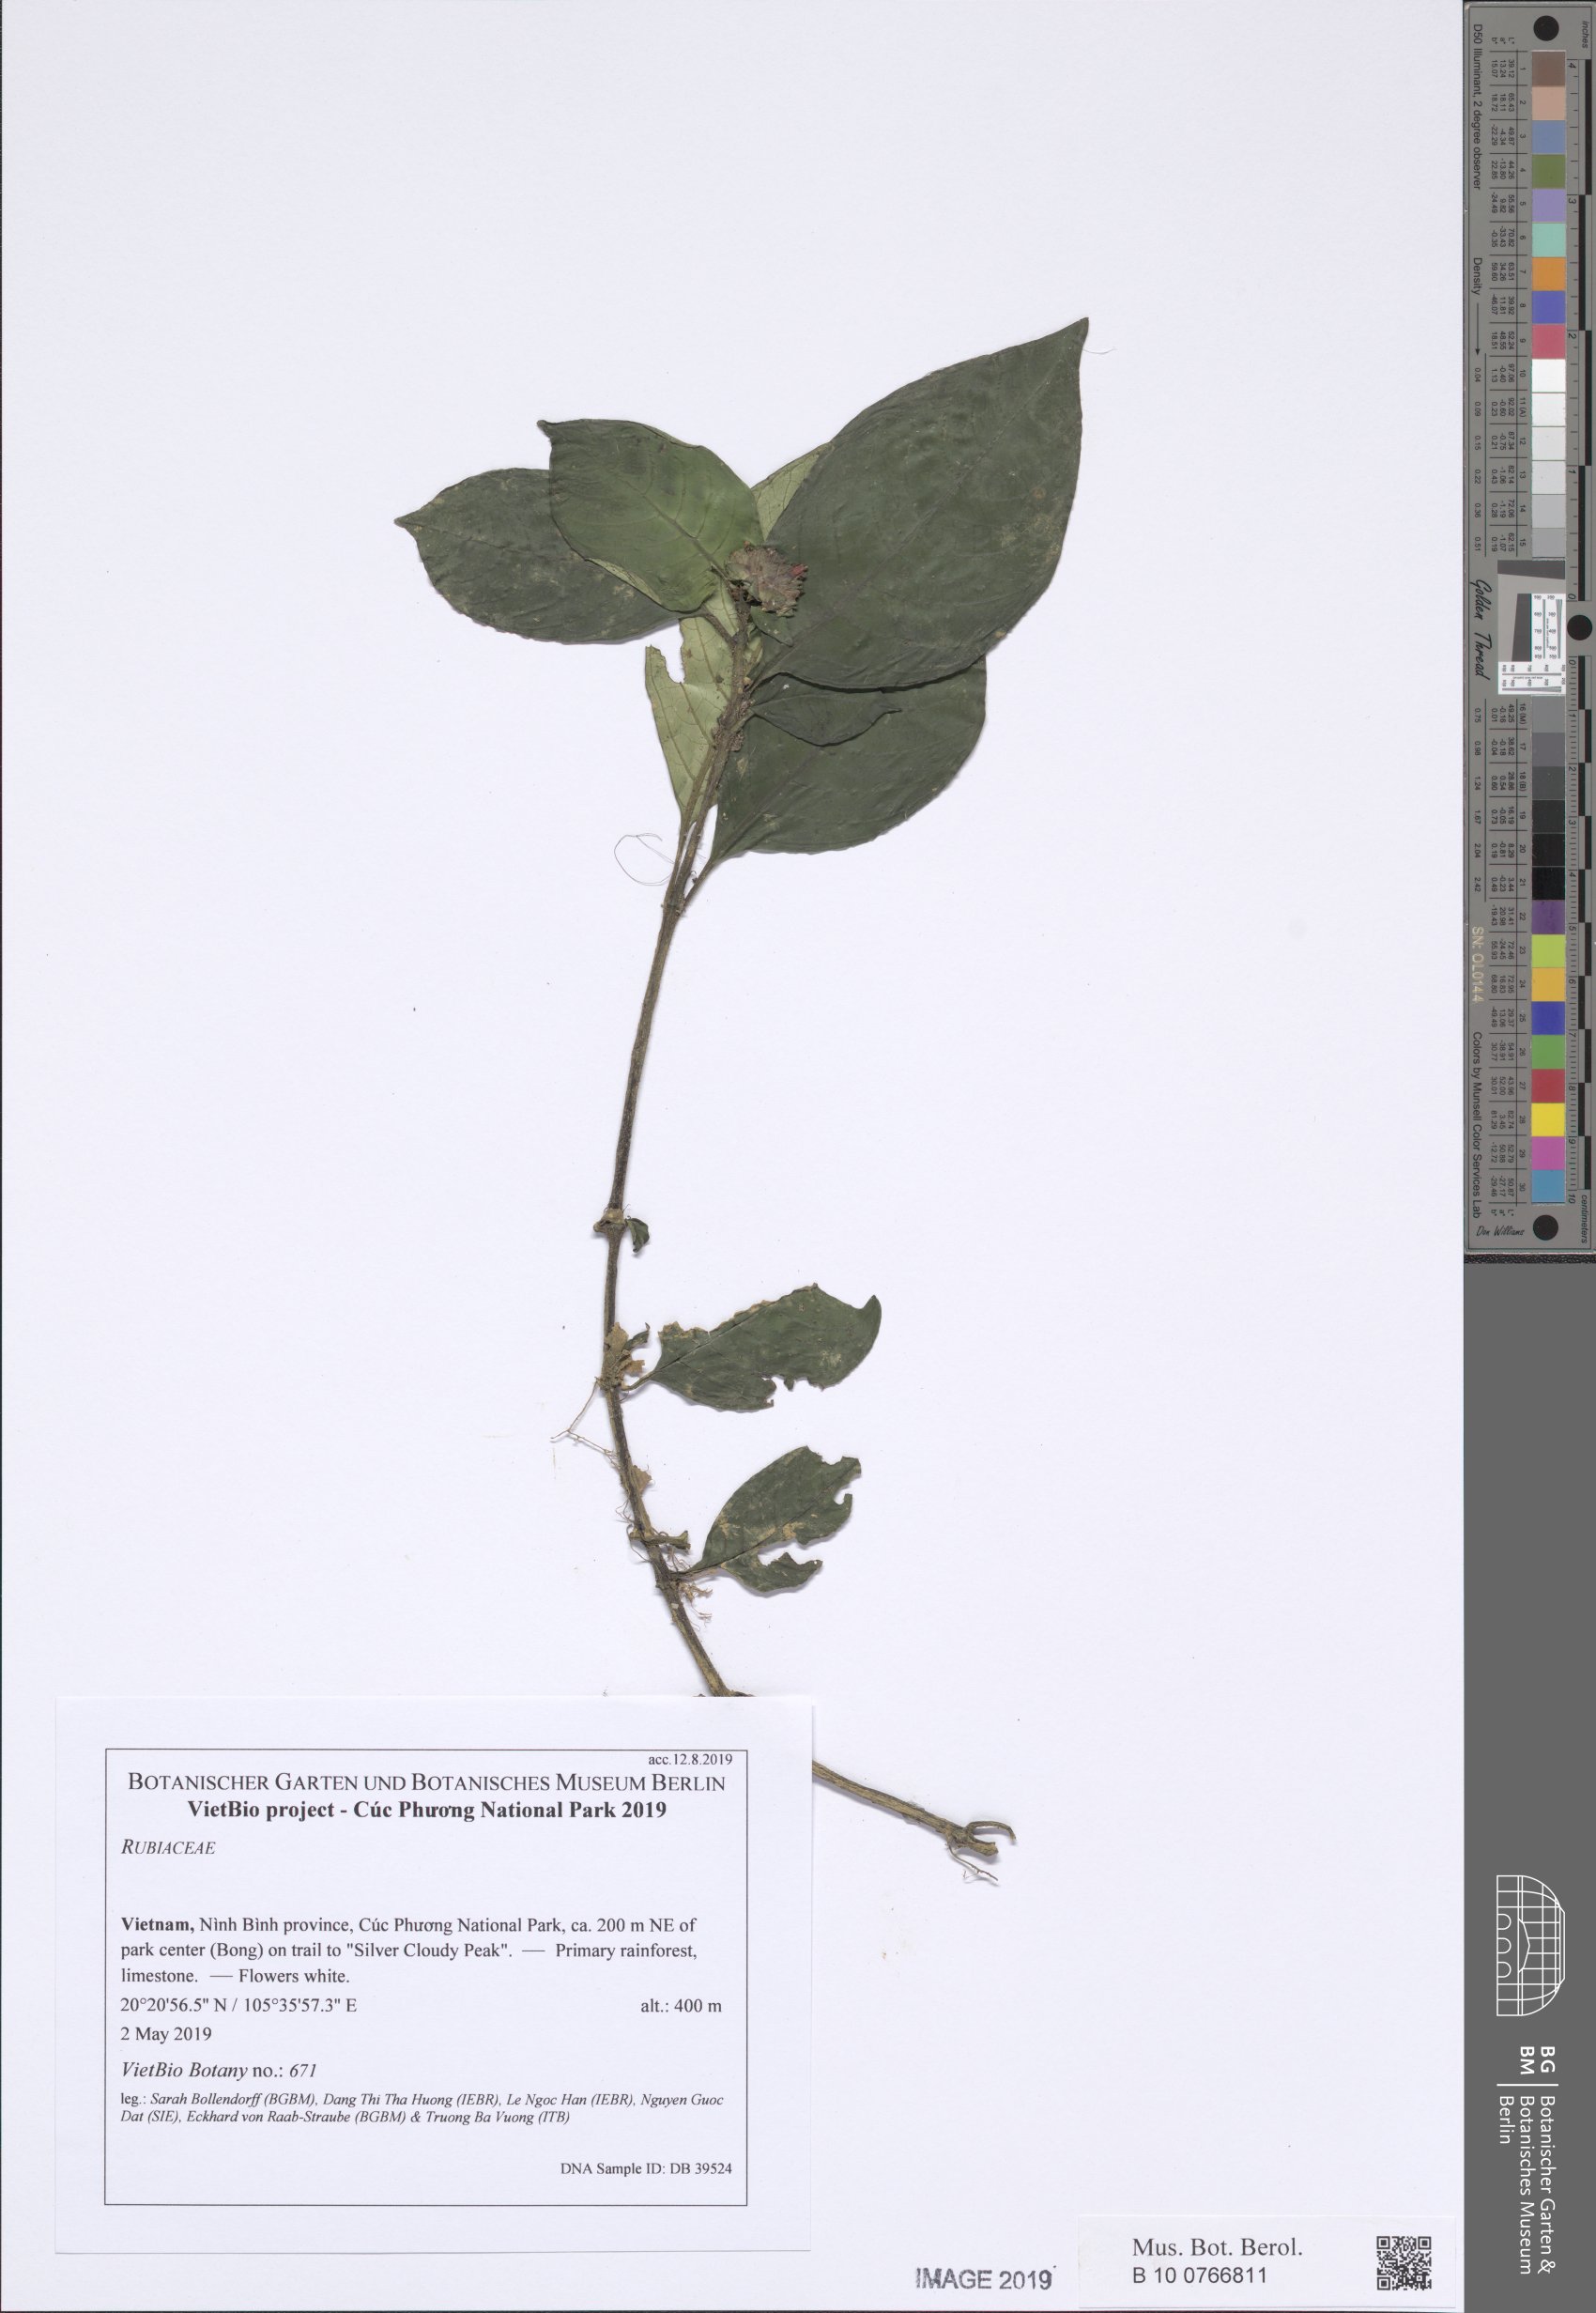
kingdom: Plantae
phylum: Tracheophyta
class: Magnoliopsida
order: Gentianales
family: Rubiaceae
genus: Ophiorrhiza
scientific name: Ophiorrhiza
